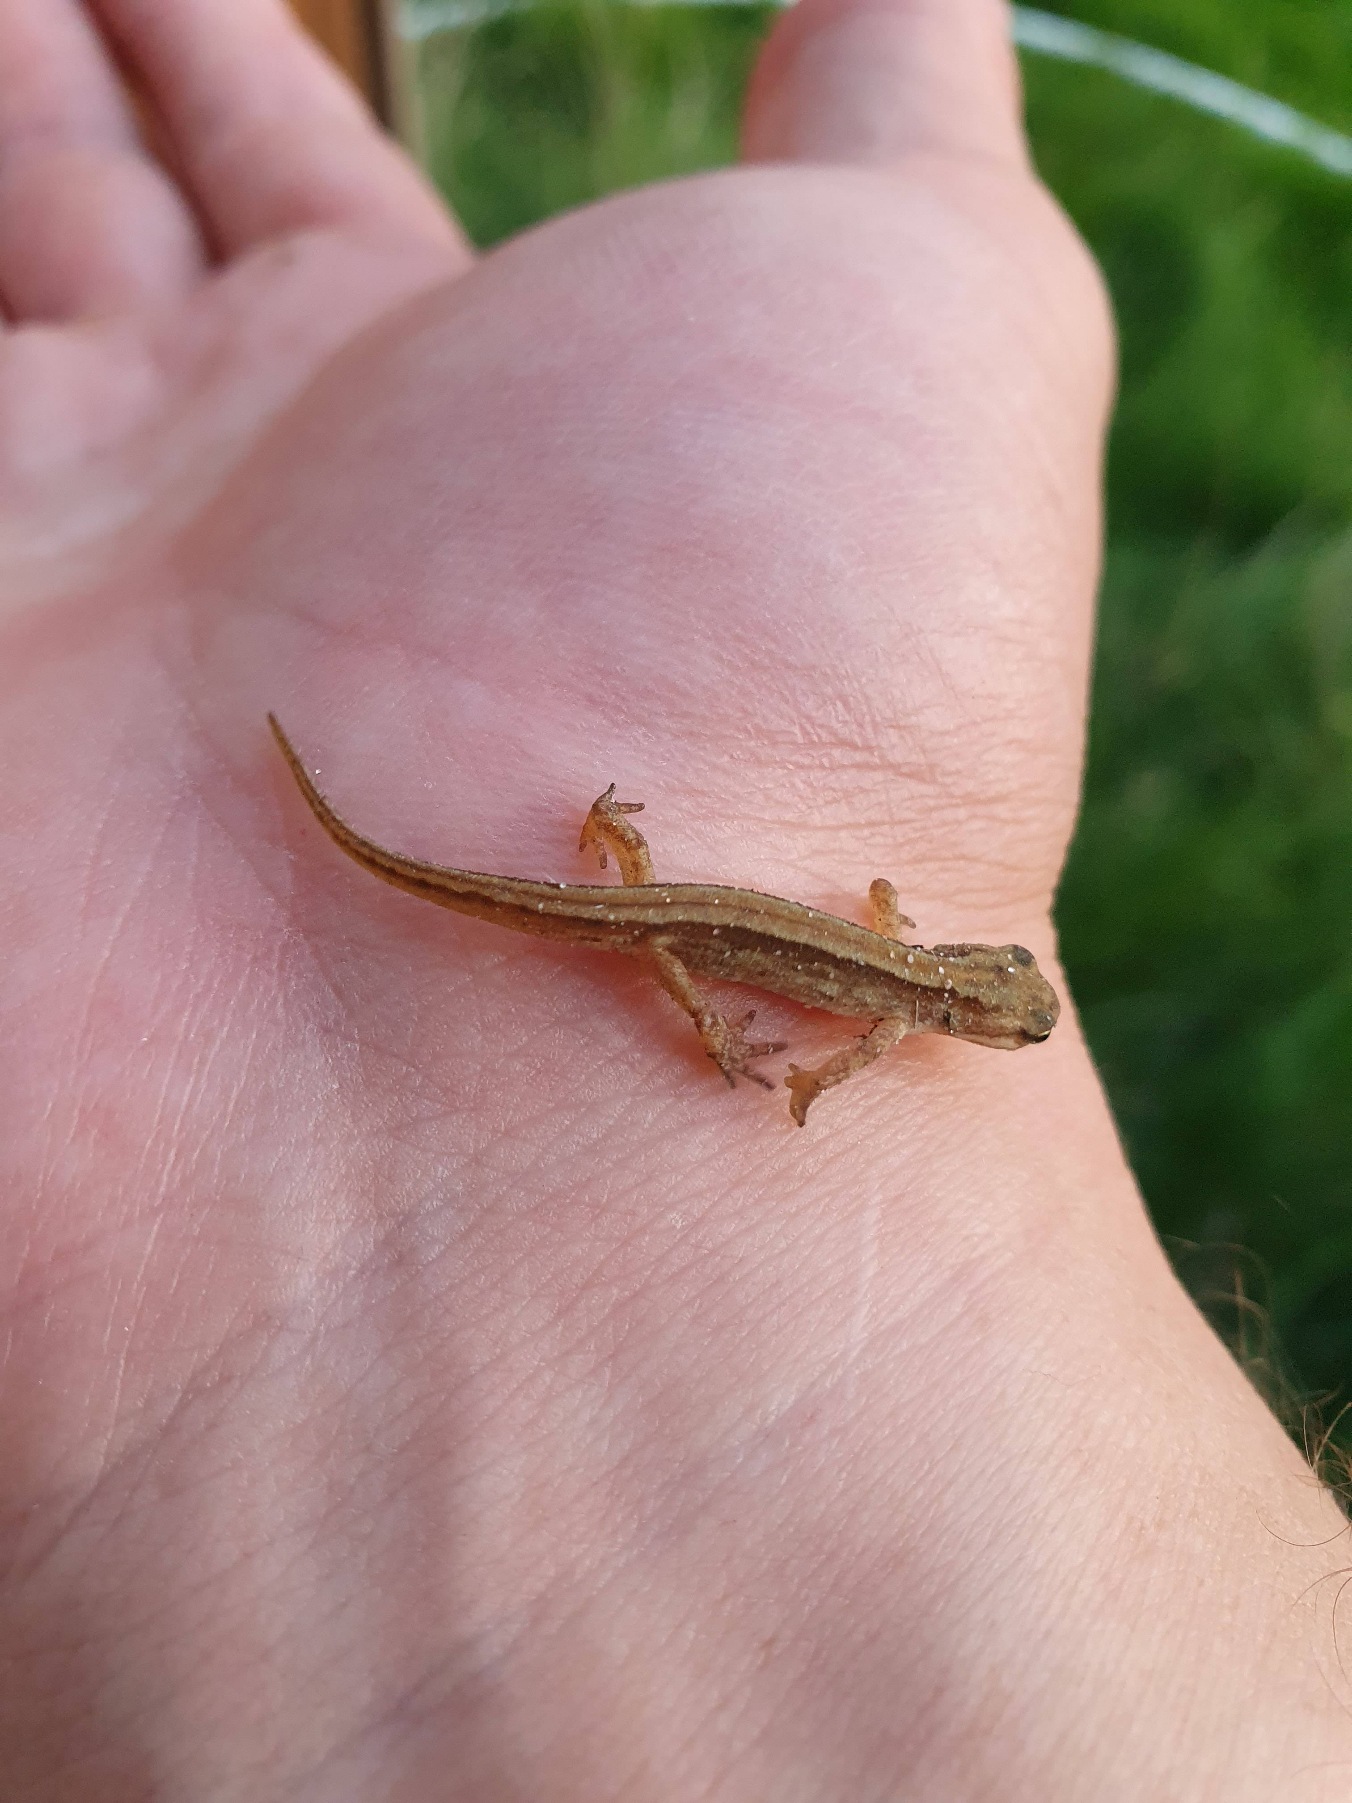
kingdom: Animalia
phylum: Chordata
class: Amphibia
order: Caudata
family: Salamandridae
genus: Lissotriton
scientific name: Lissotriton vulgaris
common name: Lille vandsalamander
